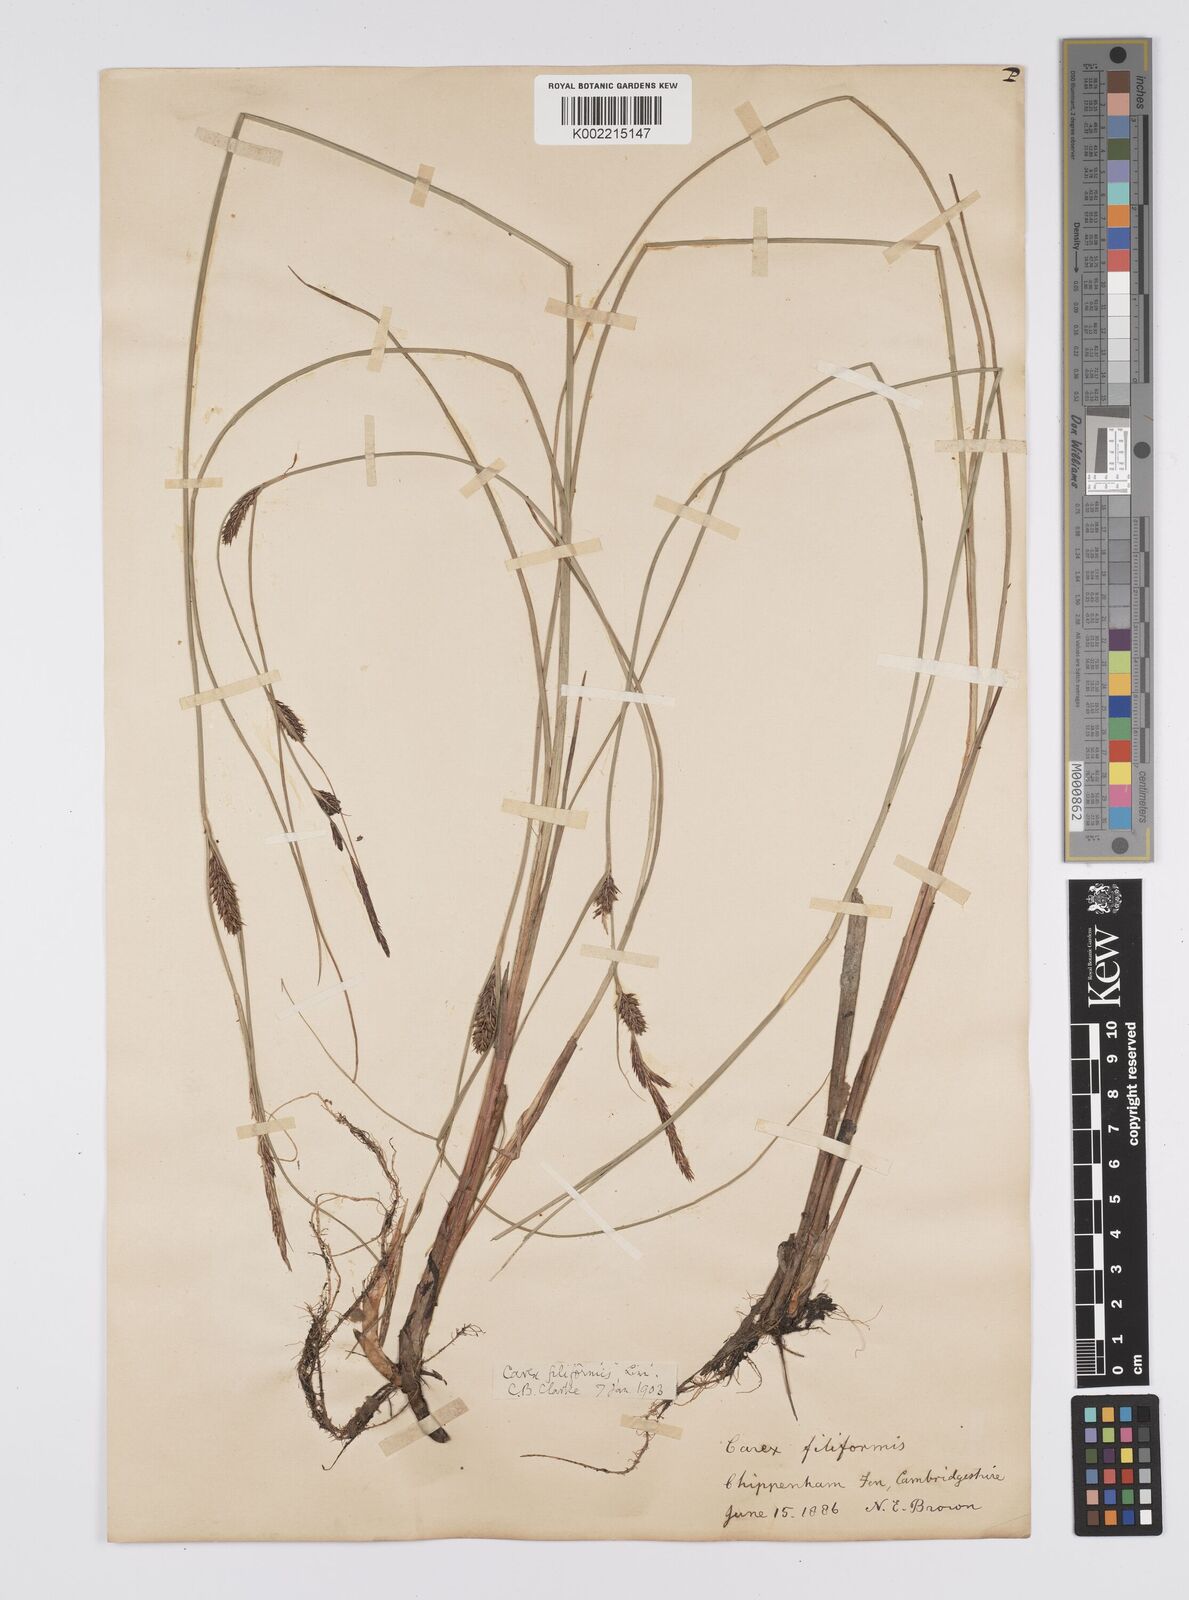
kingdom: Plantae
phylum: Tracheophyta
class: Liliopsida
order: Poales
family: Cyperaceae
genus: Carex
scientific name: Carex lasiocarpa
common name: Slender sedge
